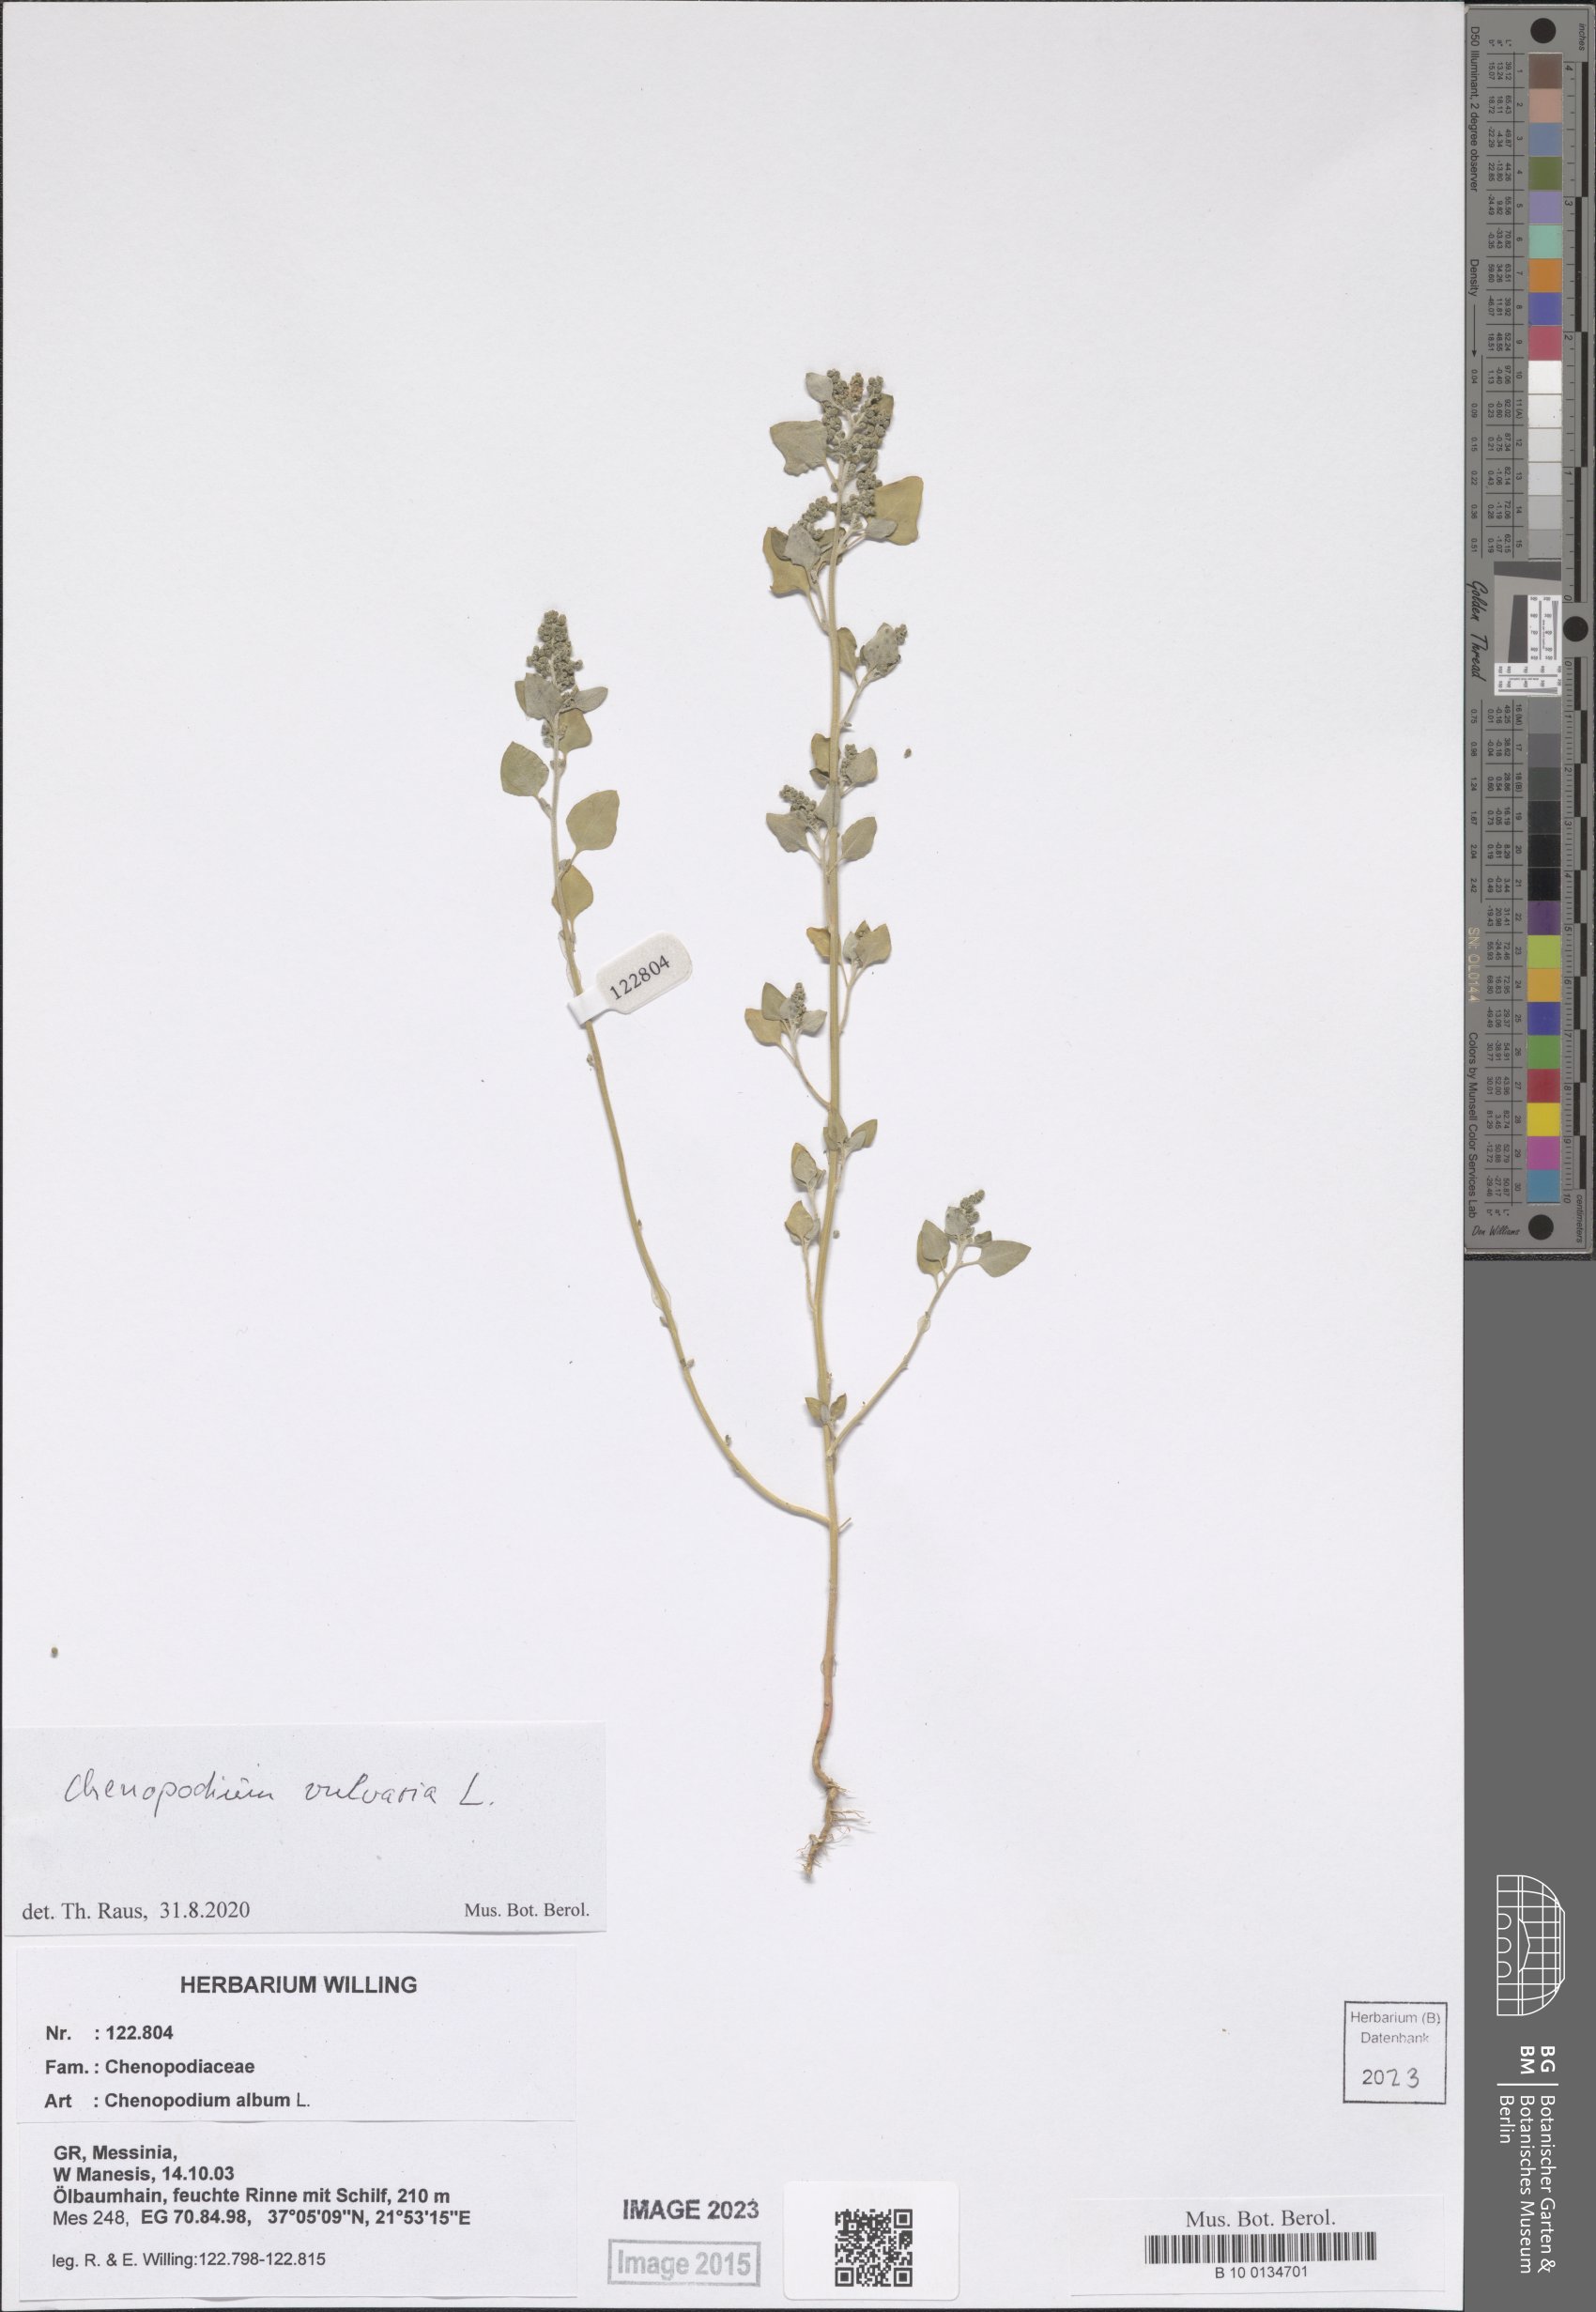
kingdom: Plantae
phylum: Tracheophyta
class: Magnoliopsida
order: Caryophyllales
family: Amaranthaceae
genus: Chenopodium
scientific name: Chenopodium vulvaria
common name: Stinking goosefoot
